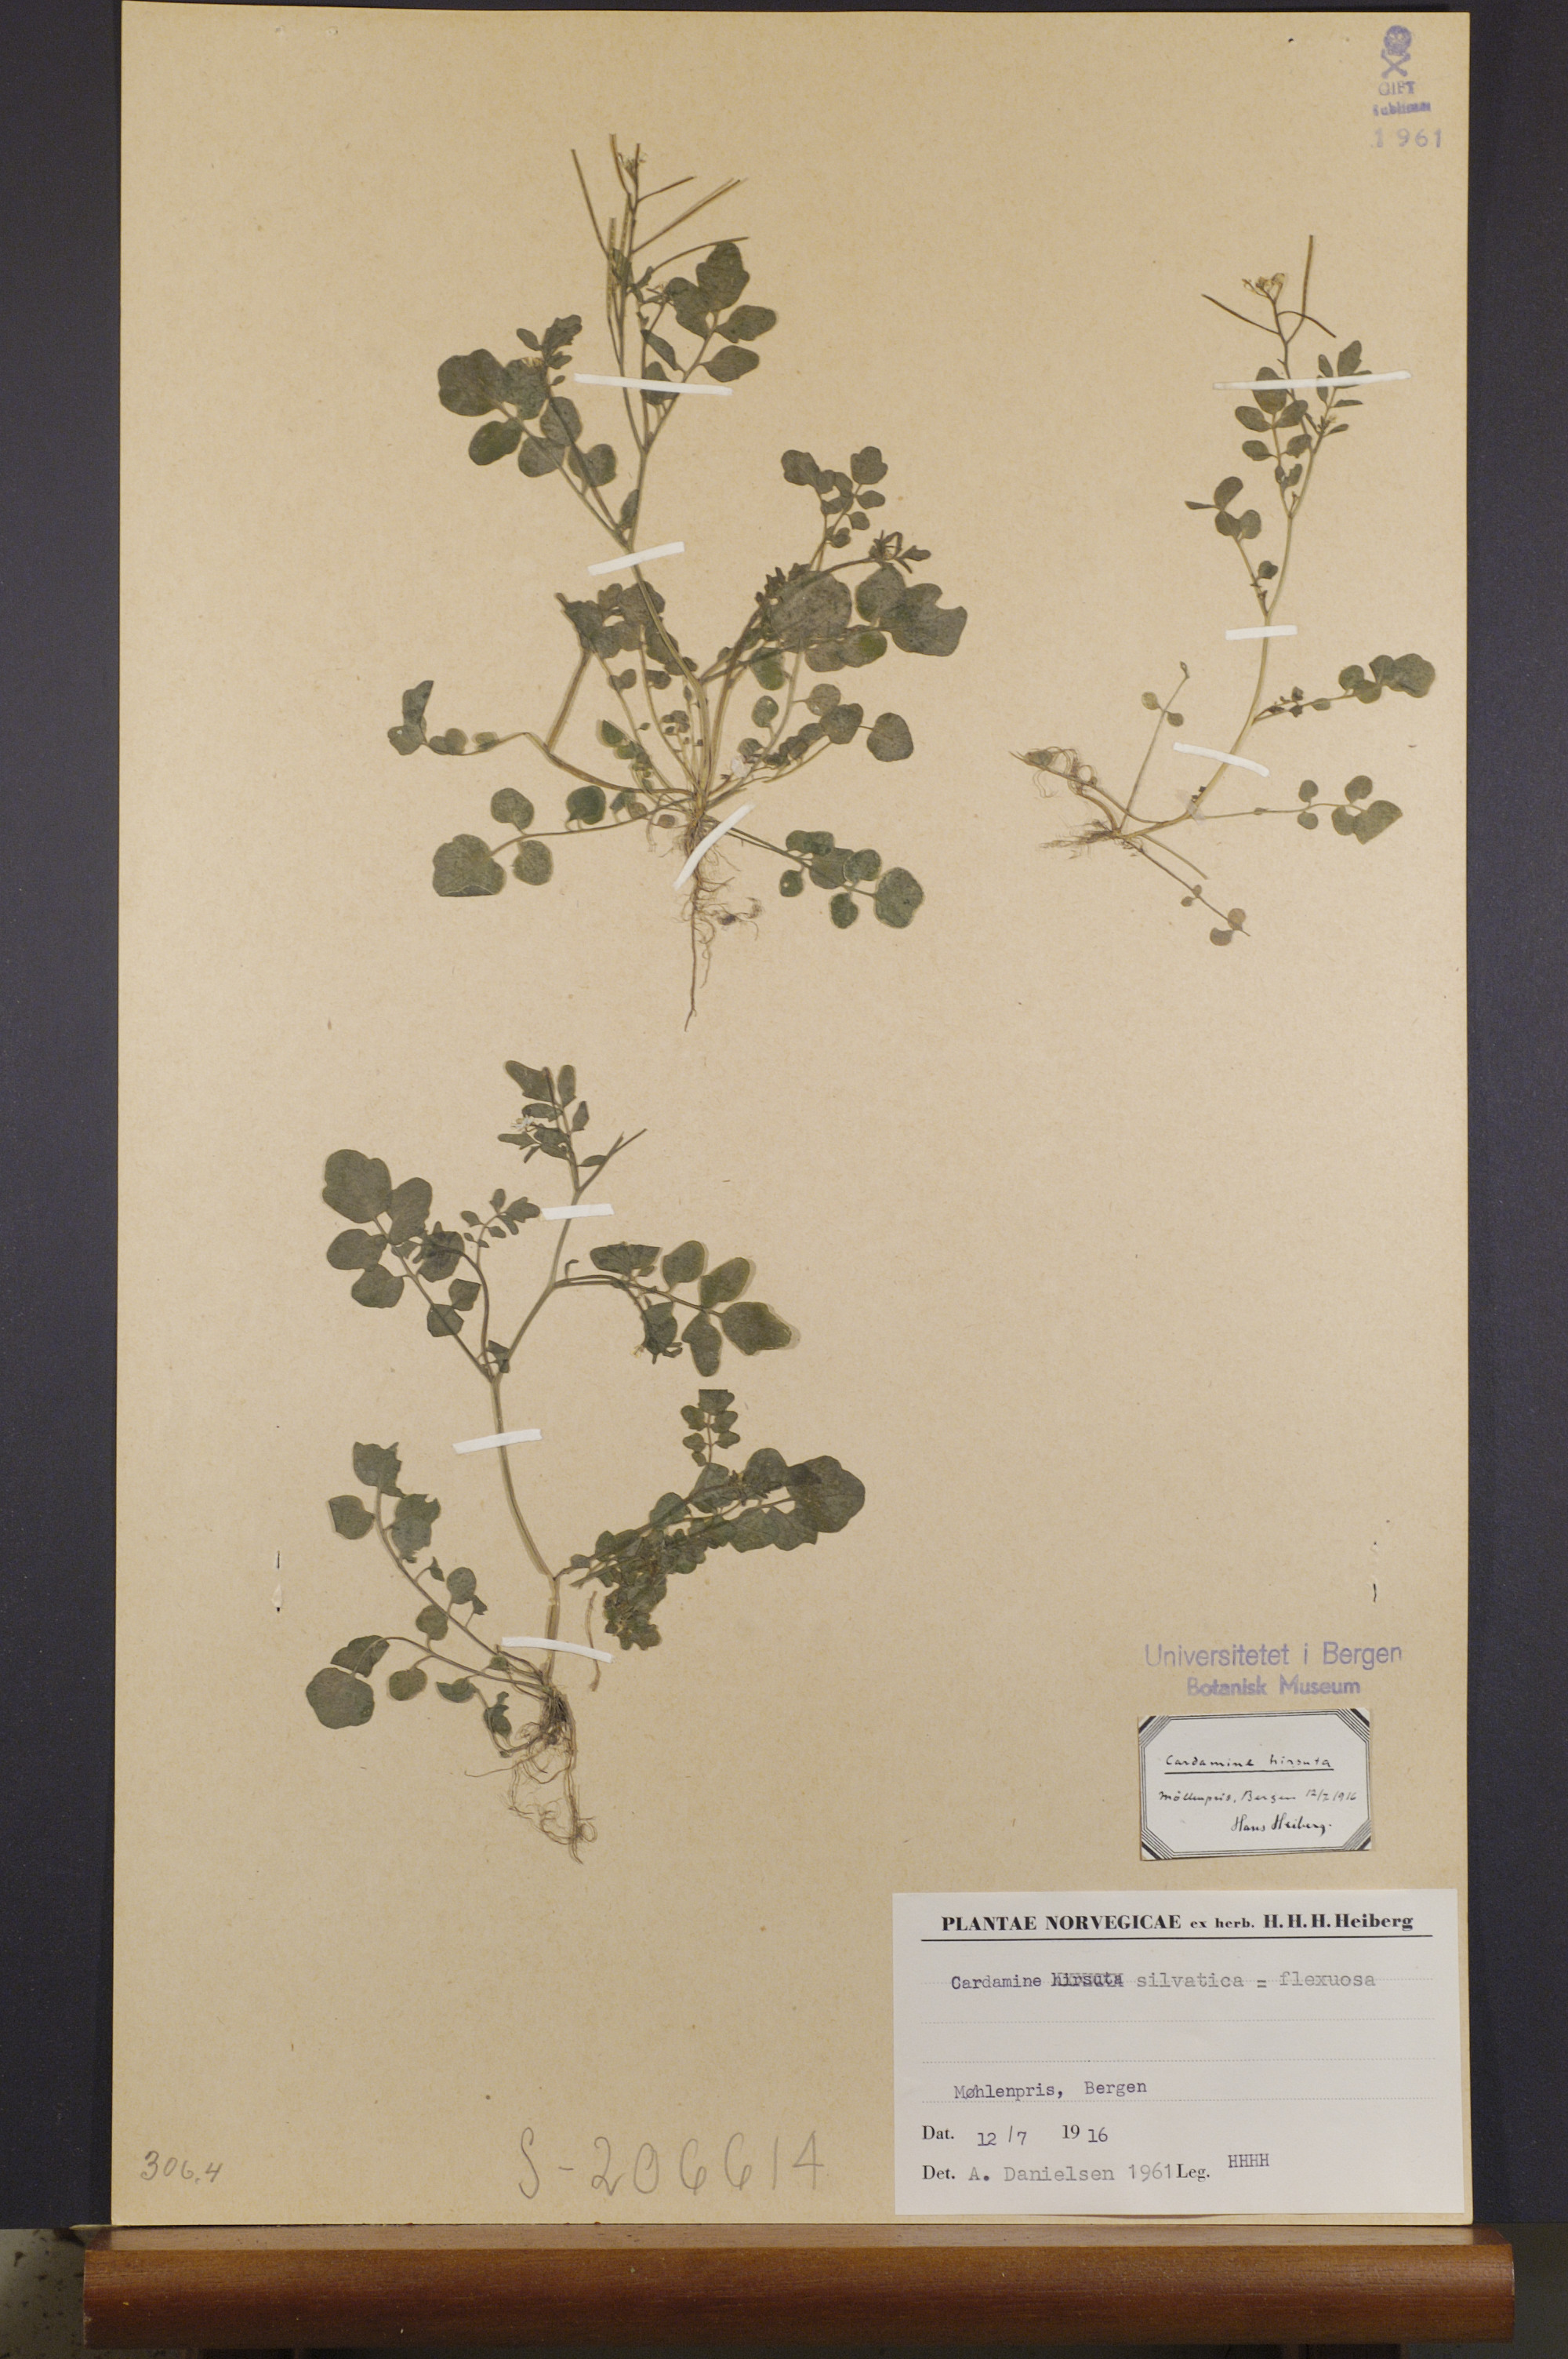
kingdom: Plantae
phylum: Tracheophyta
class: Magnoliopsida
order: Brassicales
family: Brassicaceae
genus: Cardamine
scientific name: Cardamine flexuosa
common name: Woodland bittercress
